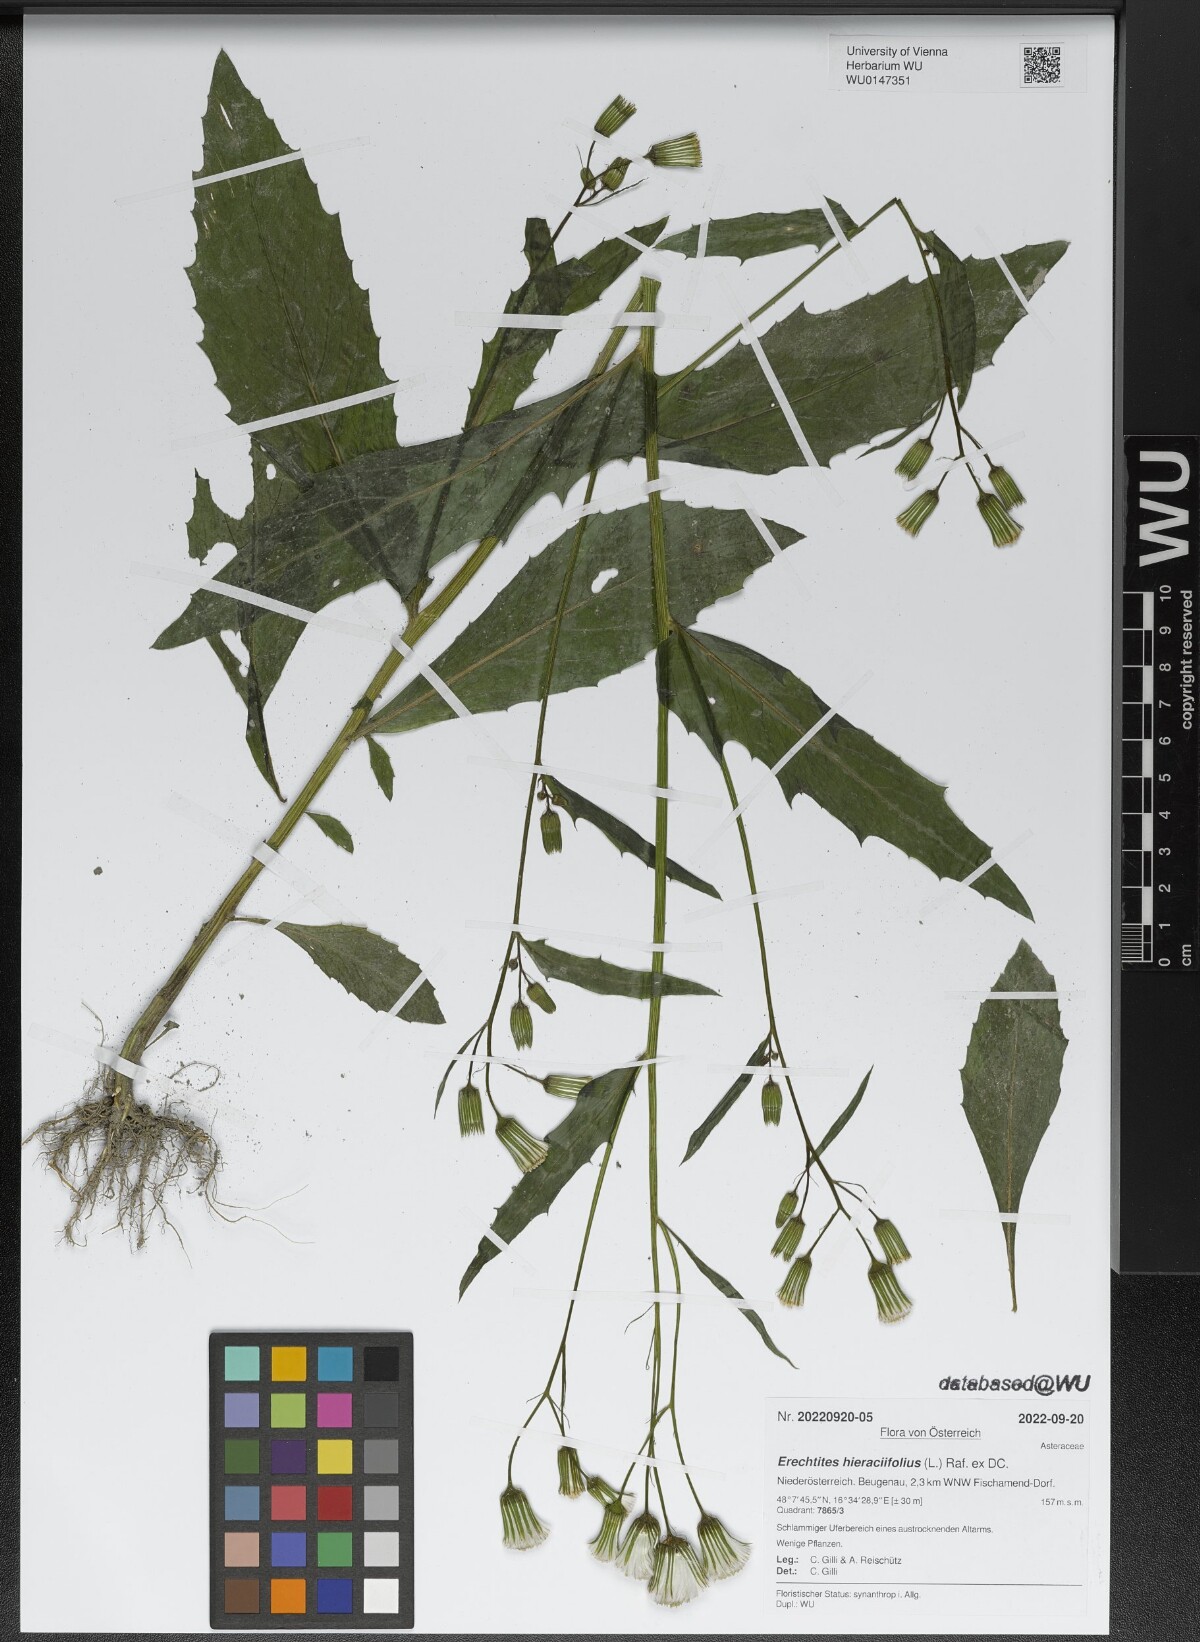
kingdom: Plantae
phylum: Tracheophyta
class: Magnoliopsida
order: Asterales
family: Asteraceae
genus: Erechtites
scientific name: Erechtites hieraciifolius
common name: American burnweed
